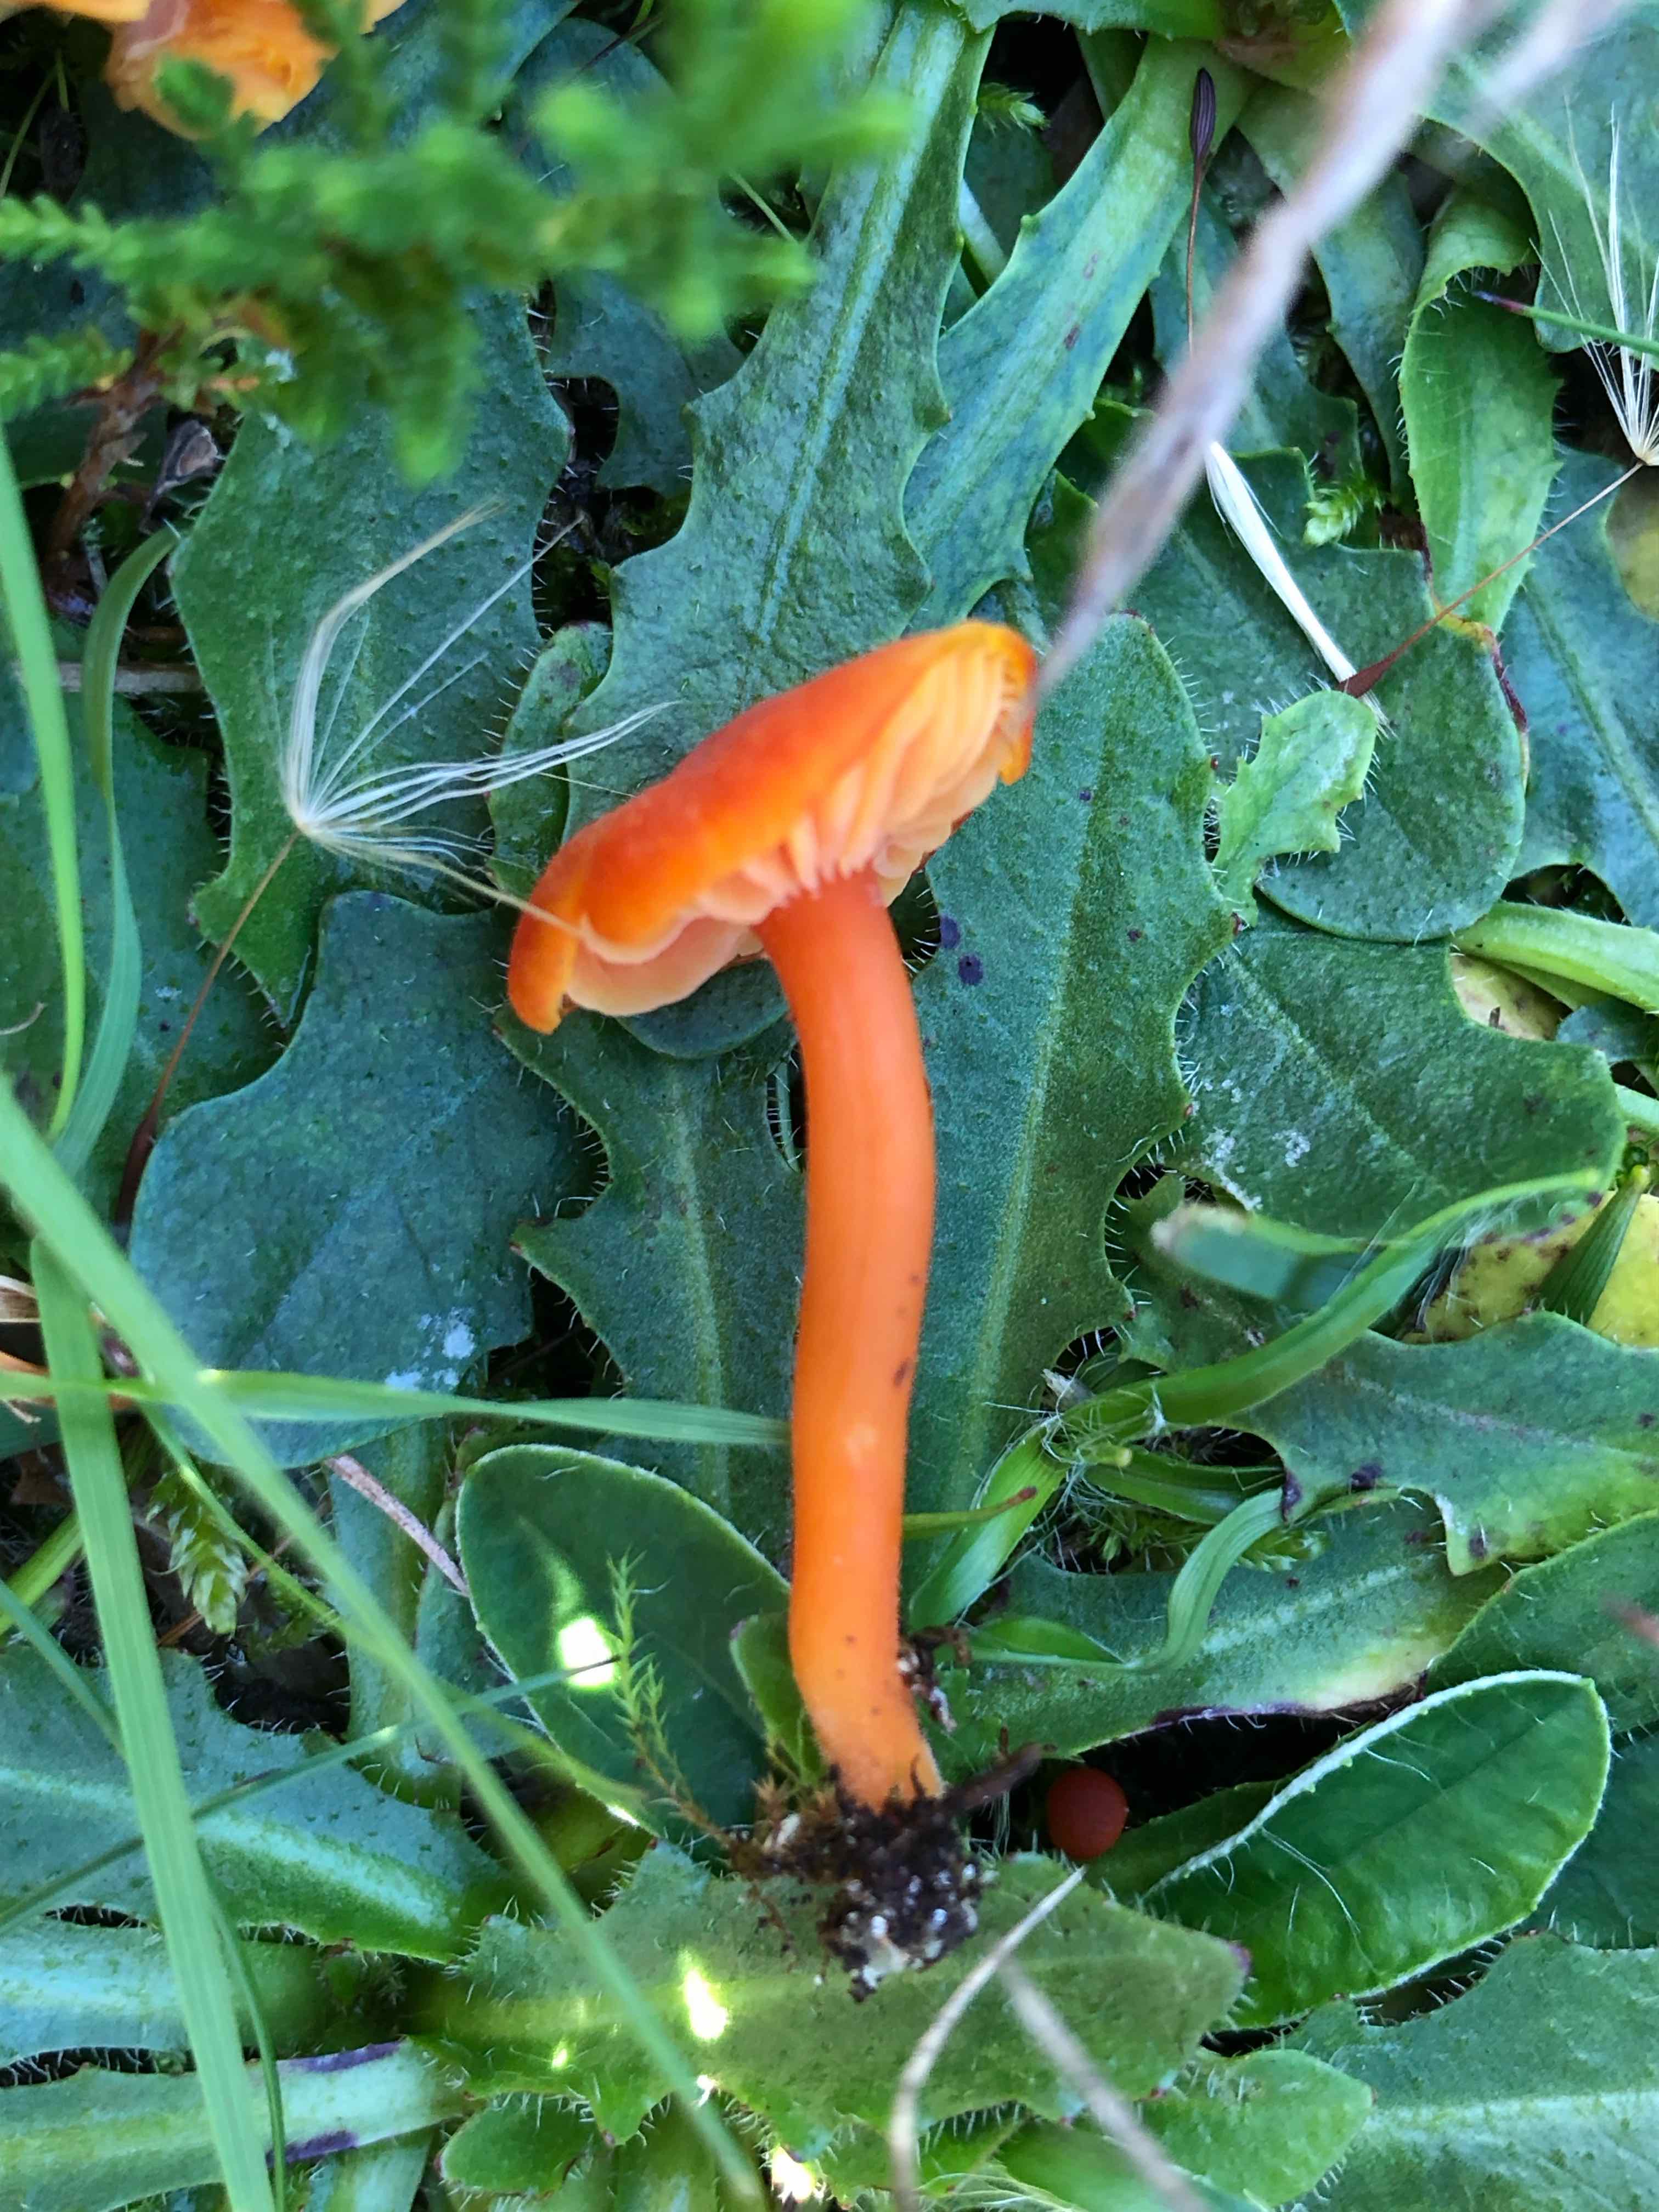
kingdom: Fungi
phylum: Basidiomycota
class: Agaricomycetes
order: Agaricales
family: Hygrophoraceae
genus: Hygrocybe
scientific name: Hygrocybe miniata
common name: mønje-vokshat
